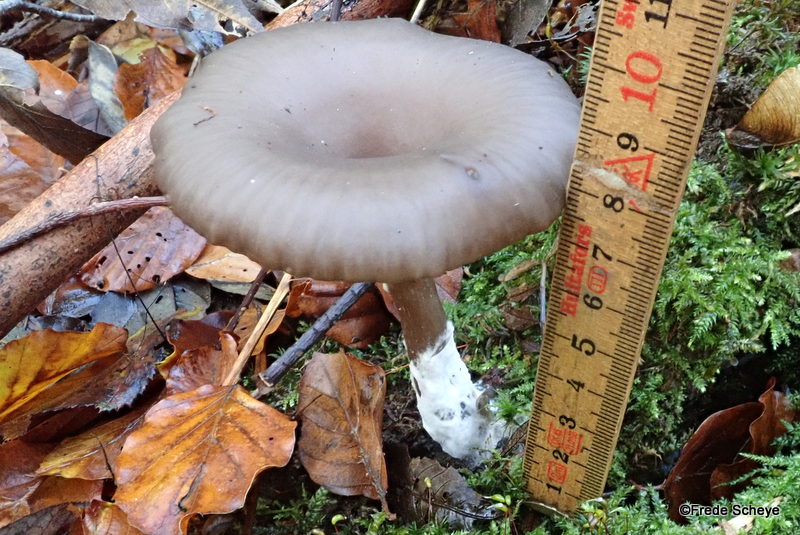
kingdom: Fungi
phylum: Basidiomycota
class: Agaricomycetes
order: Agaricales
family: Pseudoclitocybaceae
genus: Pseudoclitocybe
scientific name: Pseudoclitocybe cyathiformis
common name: almindelig bægertragthat
